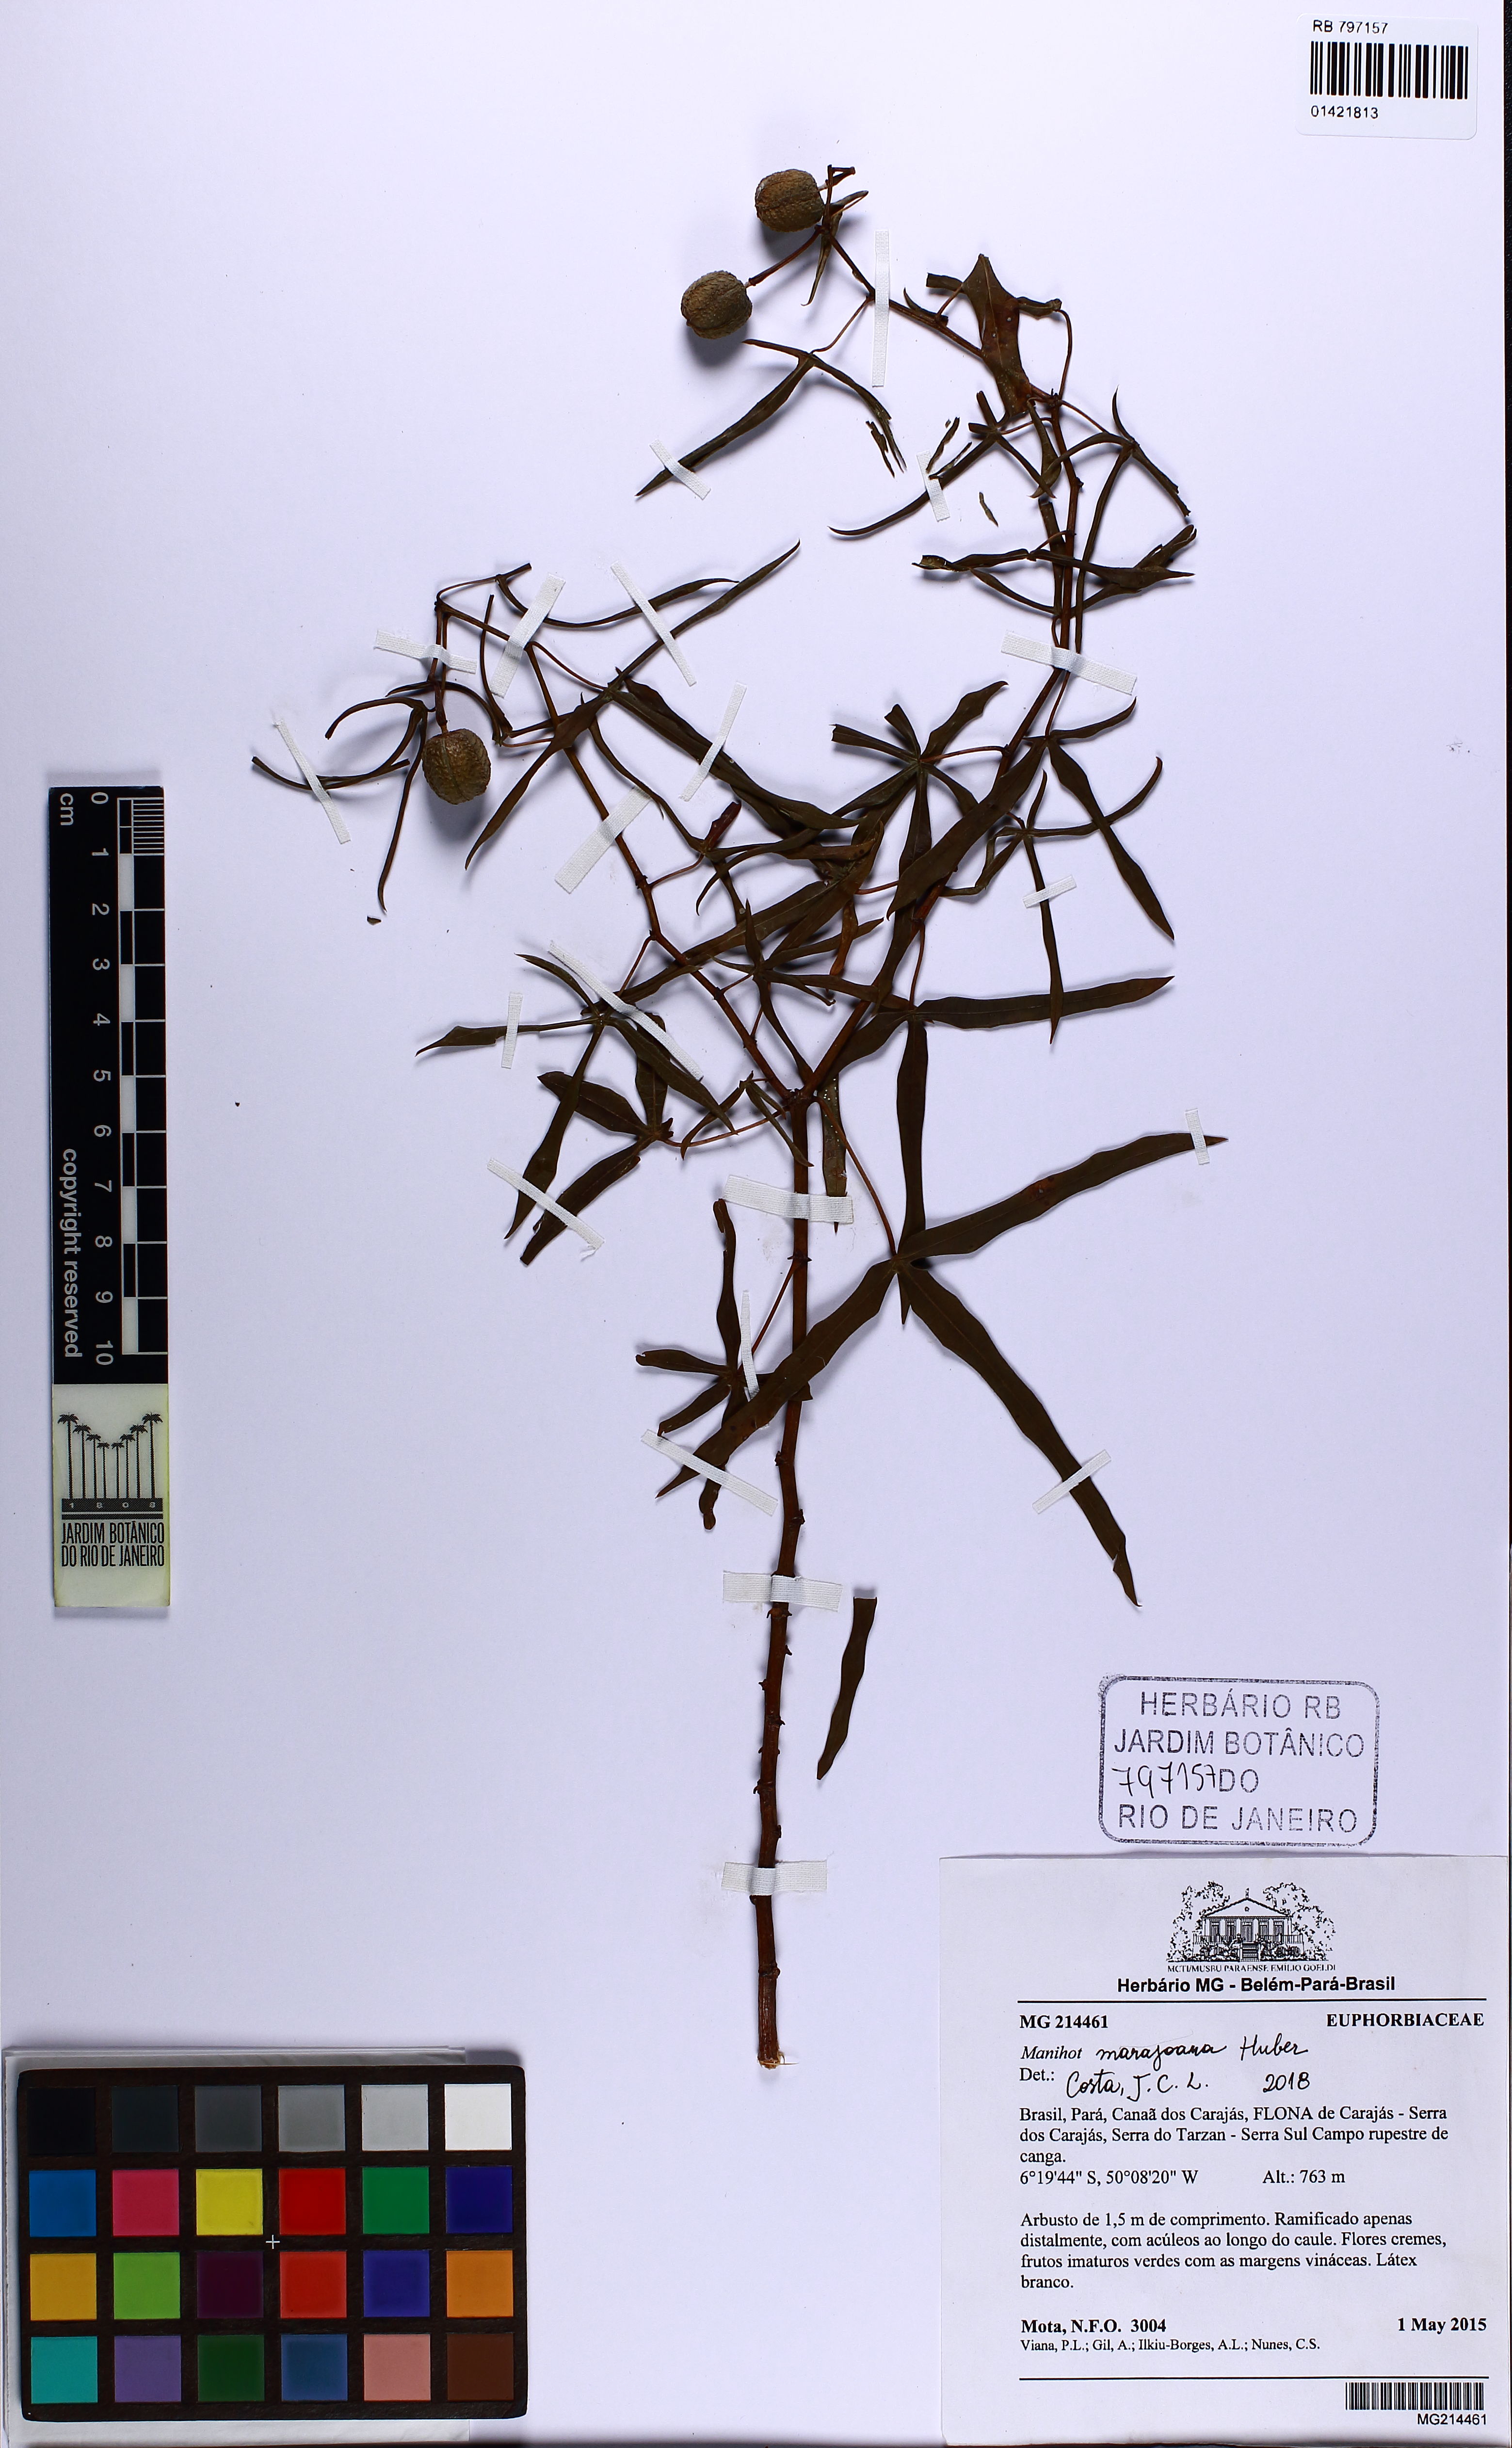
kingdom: Plantae
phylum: Tracheophyta
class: Magnoliopsida
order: Malpighiales
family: Euphorbiaceae
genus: Manihot
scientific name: Manihot marajoara
